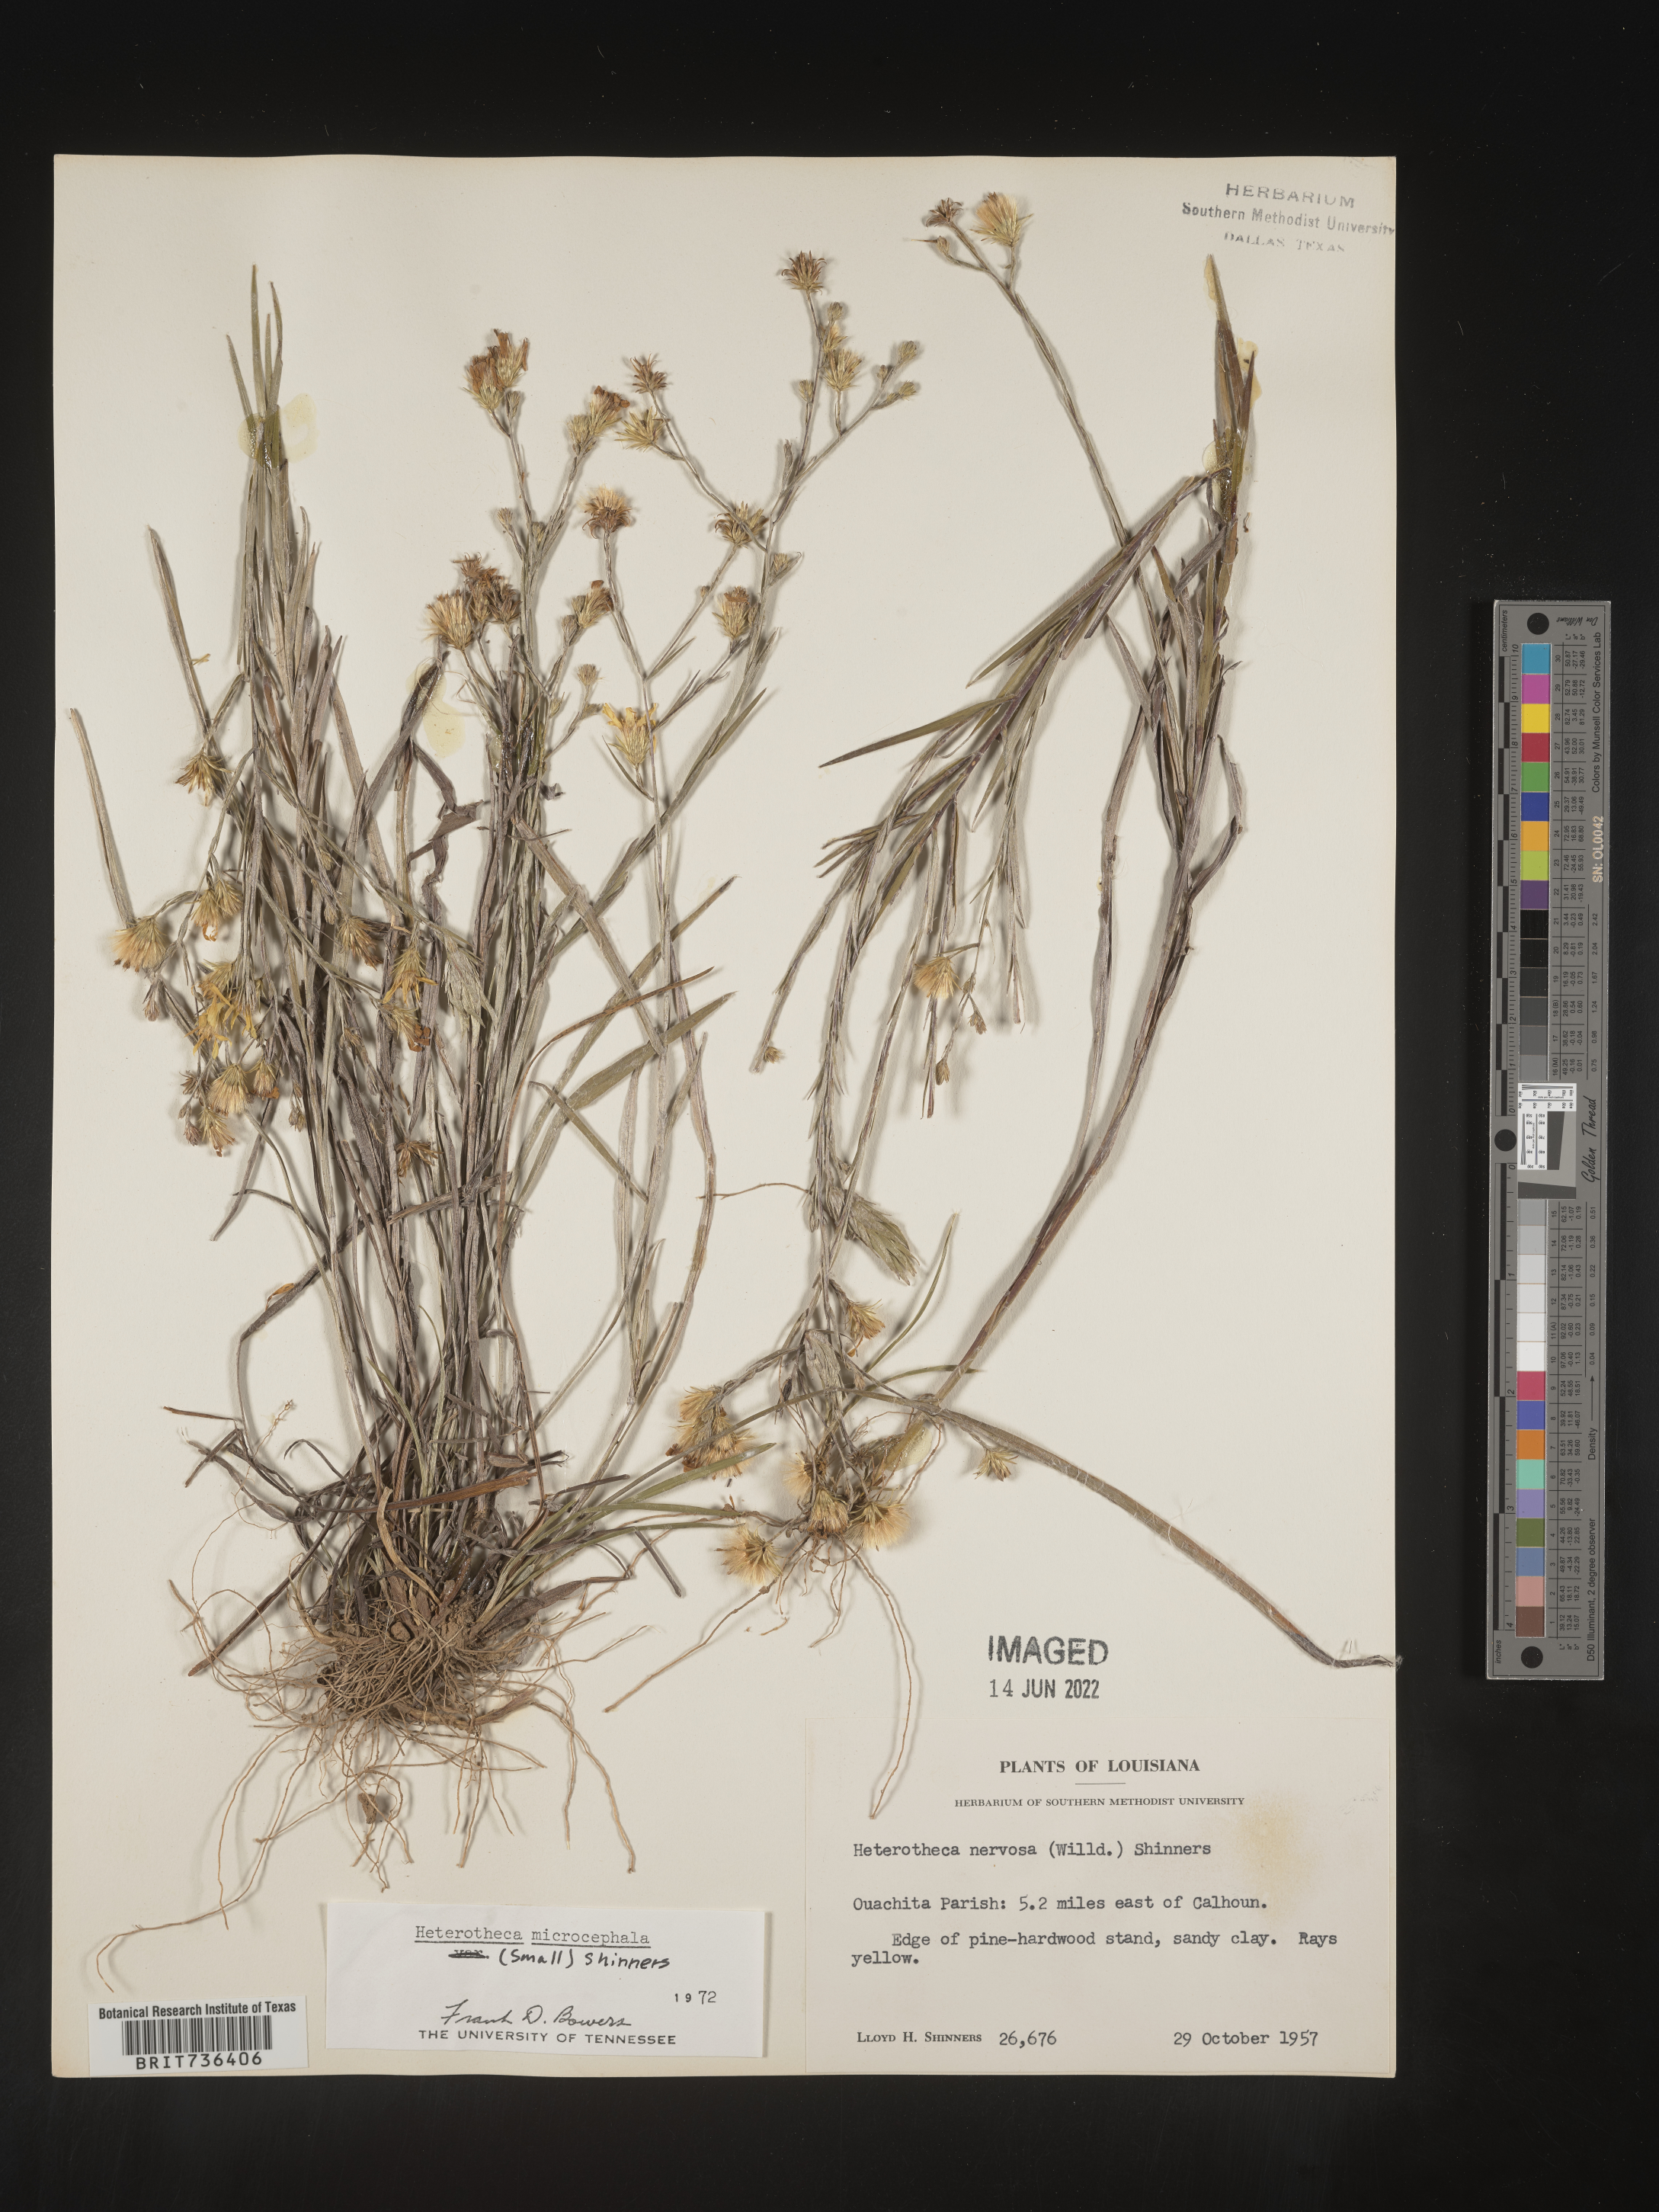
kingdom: Plantae
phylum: Tracheophyta
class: Magnoliopsida
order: Asterales
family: Asteraceae
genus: Pityopsis
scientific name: Pityopsis tenuifolia
